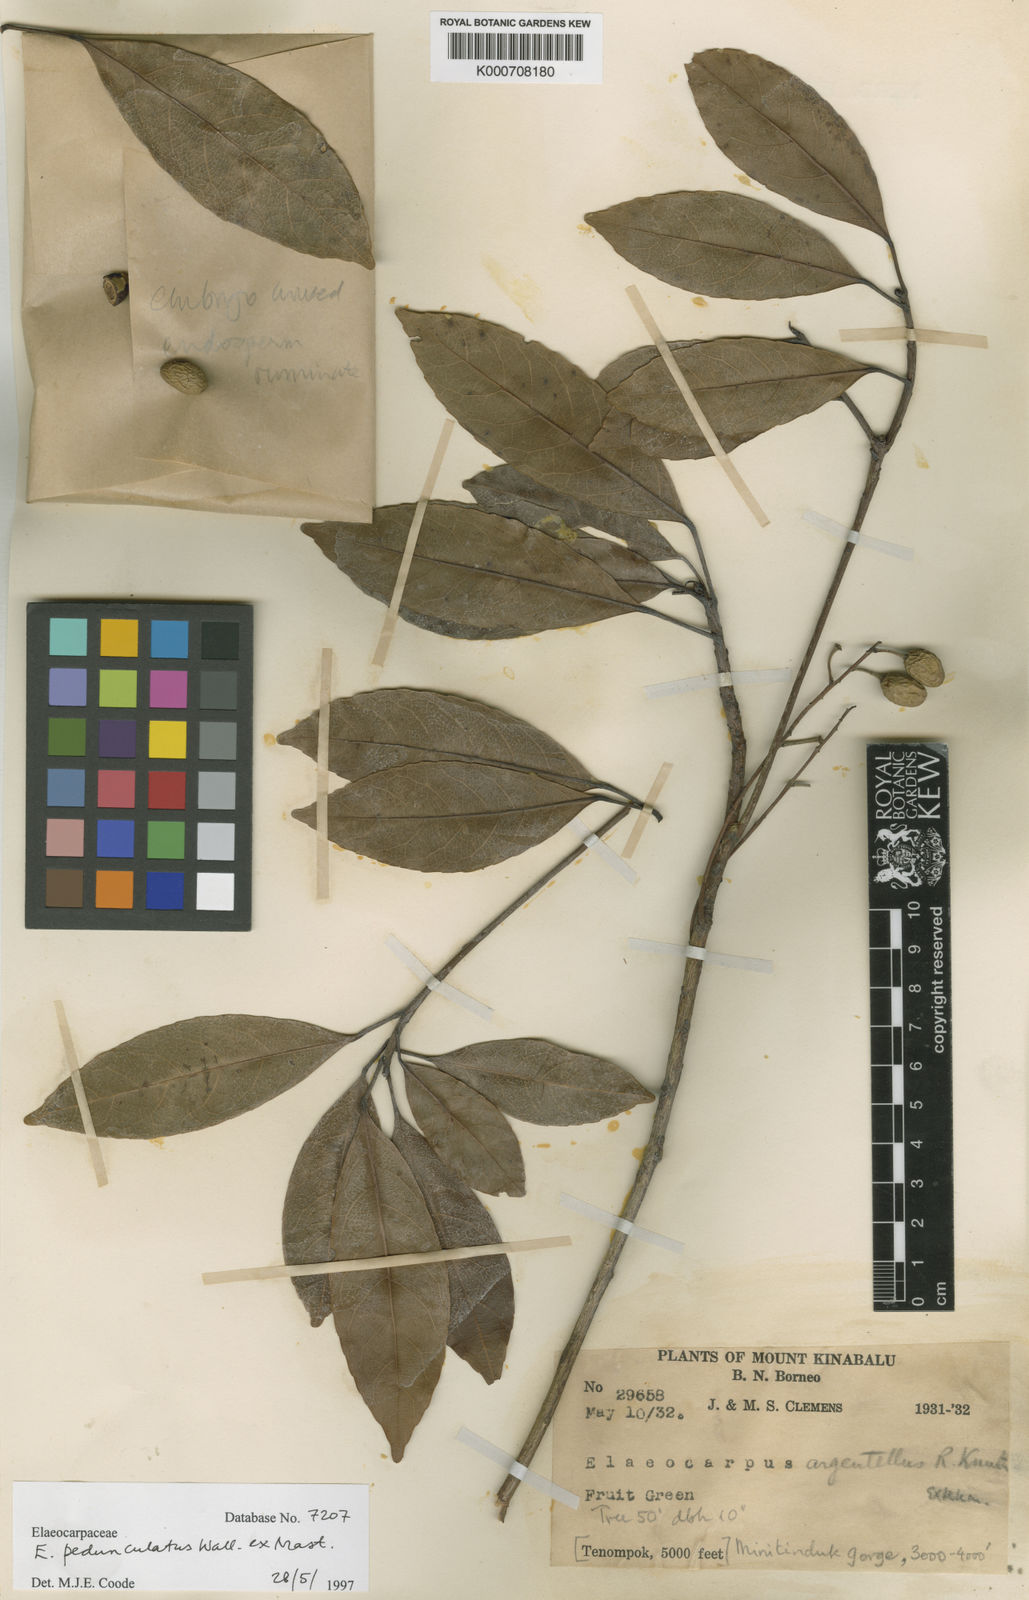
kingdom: Plantae
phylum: Tracheophyta
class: Magnoliopsida
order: Oxalidales
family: Elaeocarpaceae
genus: Elaeocarpus
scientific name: Elaeocarpus pedunculatus
